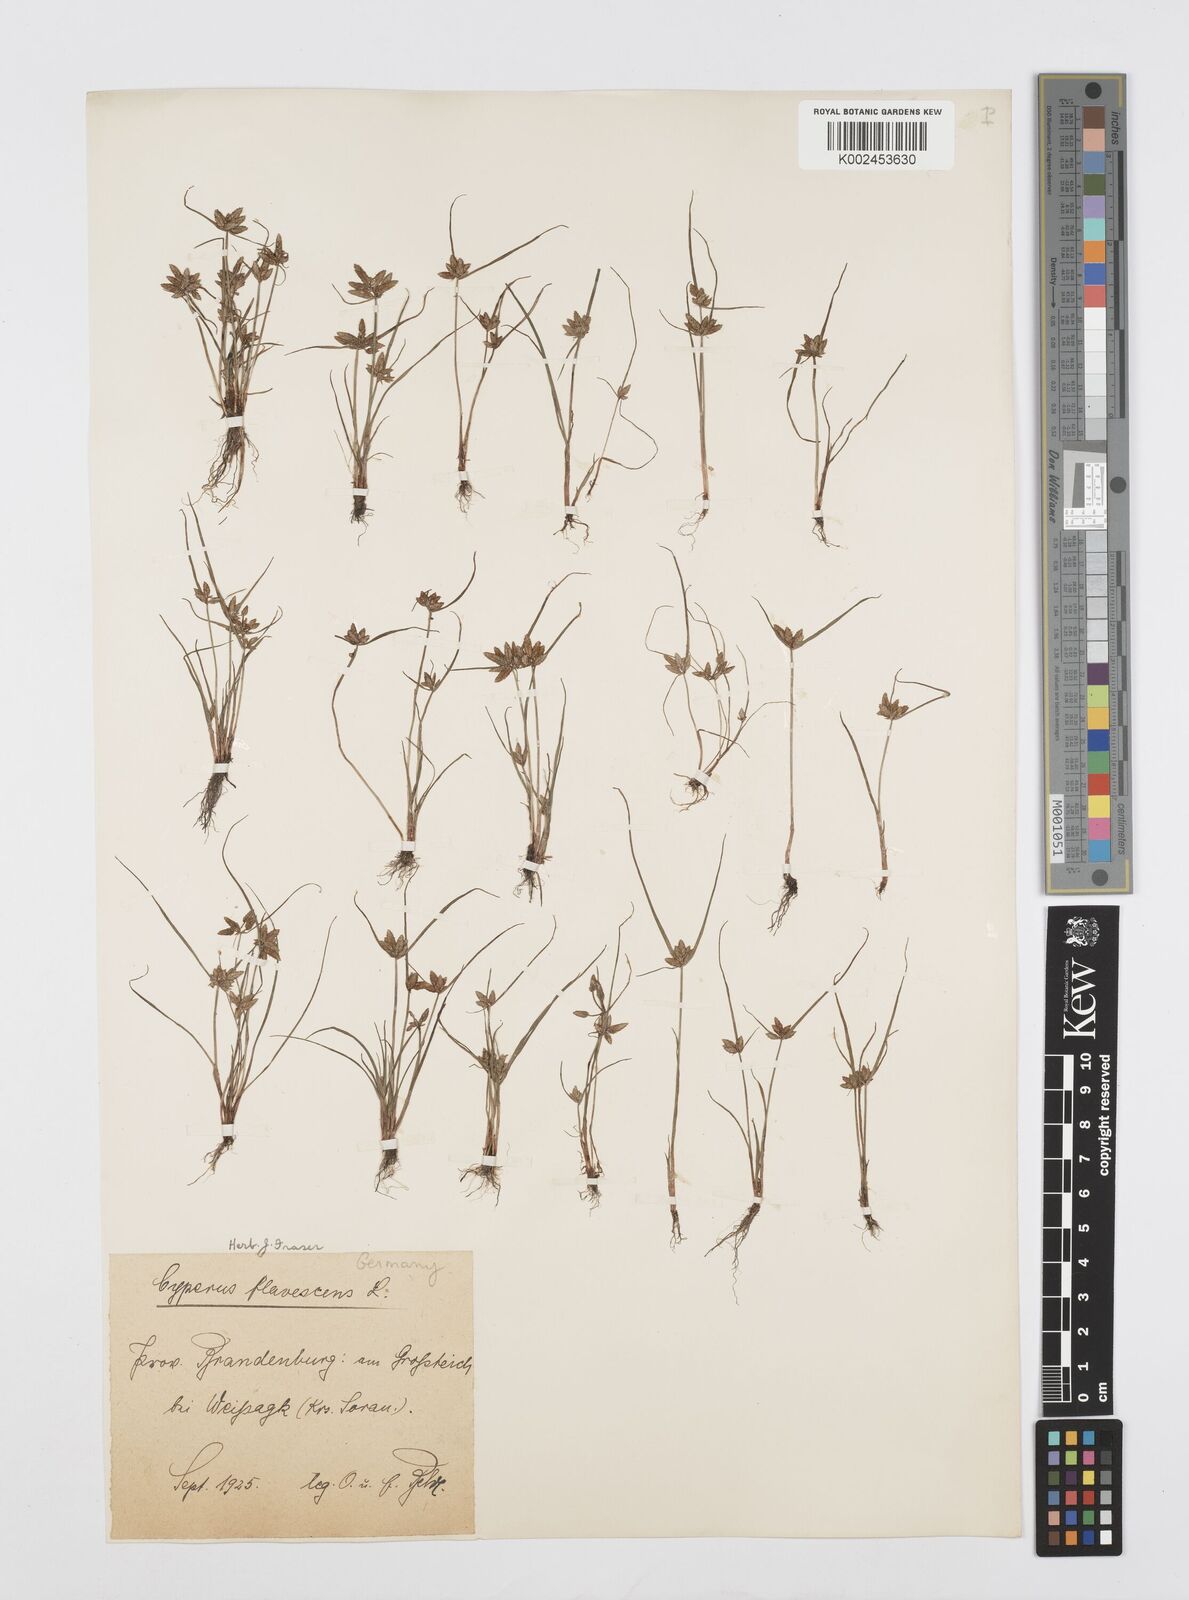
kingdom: Plantae
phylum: Tracheophyta
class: Liliopsida
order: Poales
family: Cyperaceae
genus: Cyperus
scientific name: Cyperus flavescens
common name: Yellow galingale
